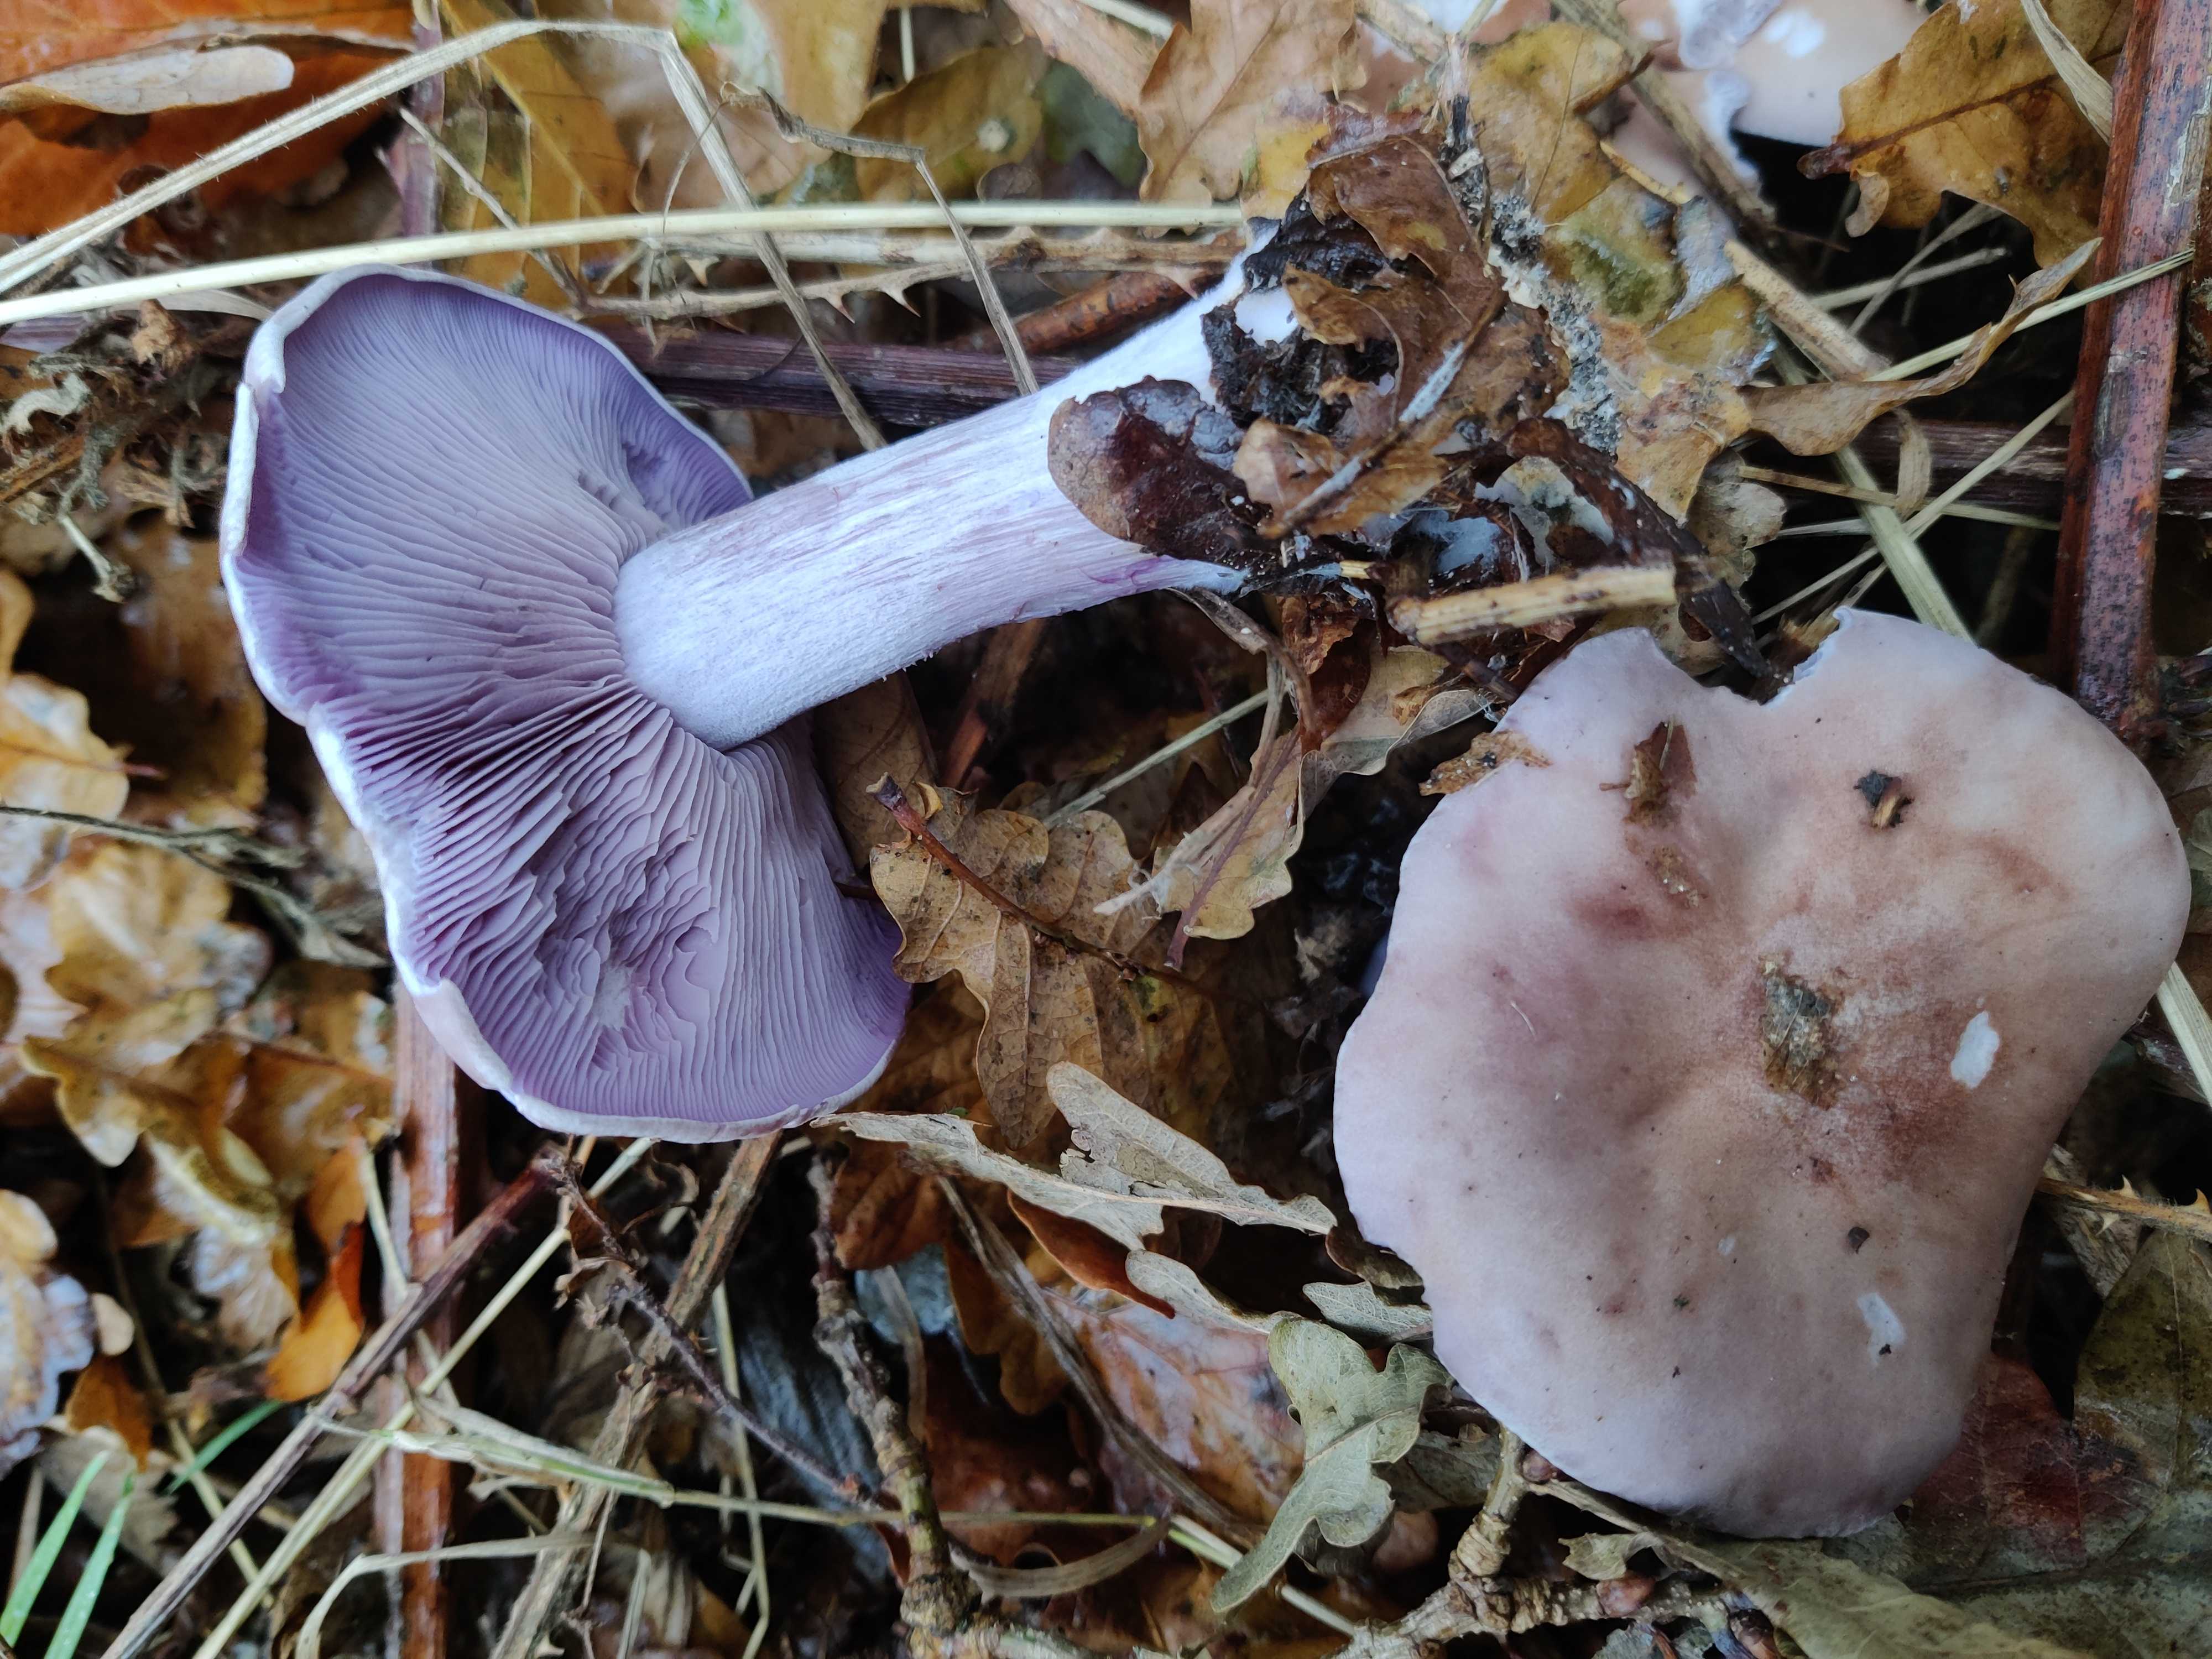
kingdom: Fungi
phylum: Basidiomycota
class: Agaricomycetes
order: Agaricales
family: Tricholomataceae
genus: Lepista
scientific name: Lepista nuda
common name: violet hekseringshat
